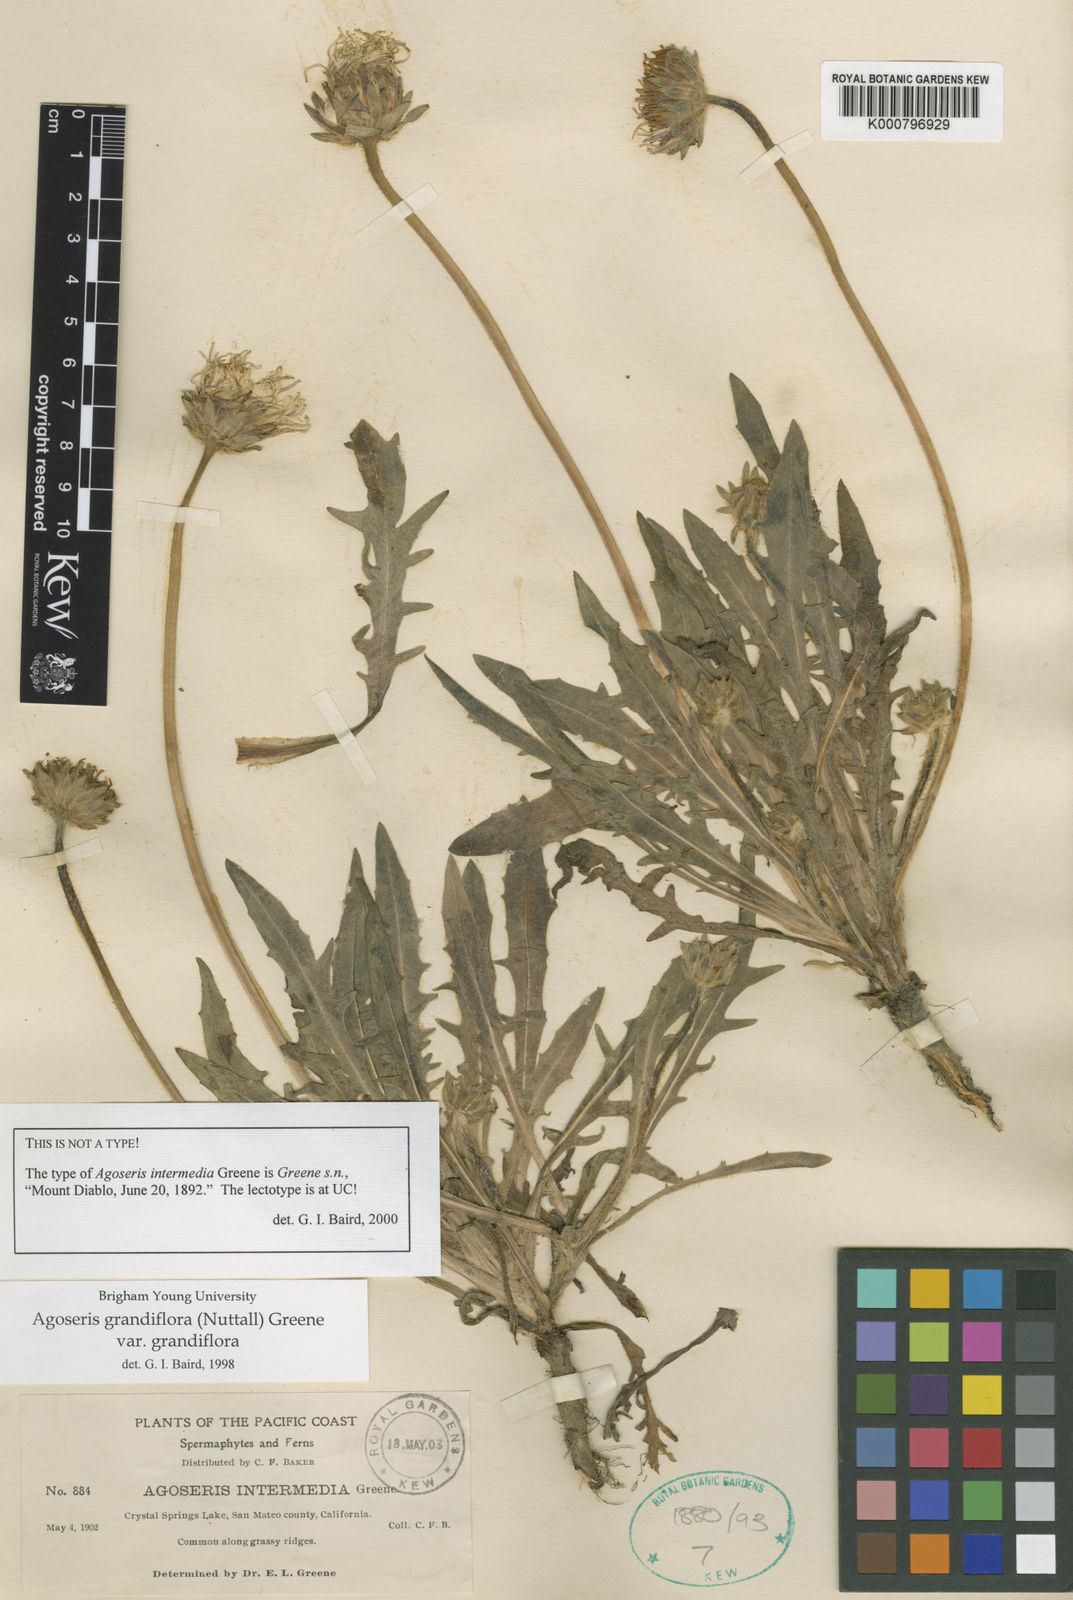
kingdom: Plantae
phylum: Tracheophyta
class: Magnoliopsida
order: Asterales
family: Asteraceae
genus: Agoseris
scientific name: Agoseris grandiflora
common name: Grassland agoseris
